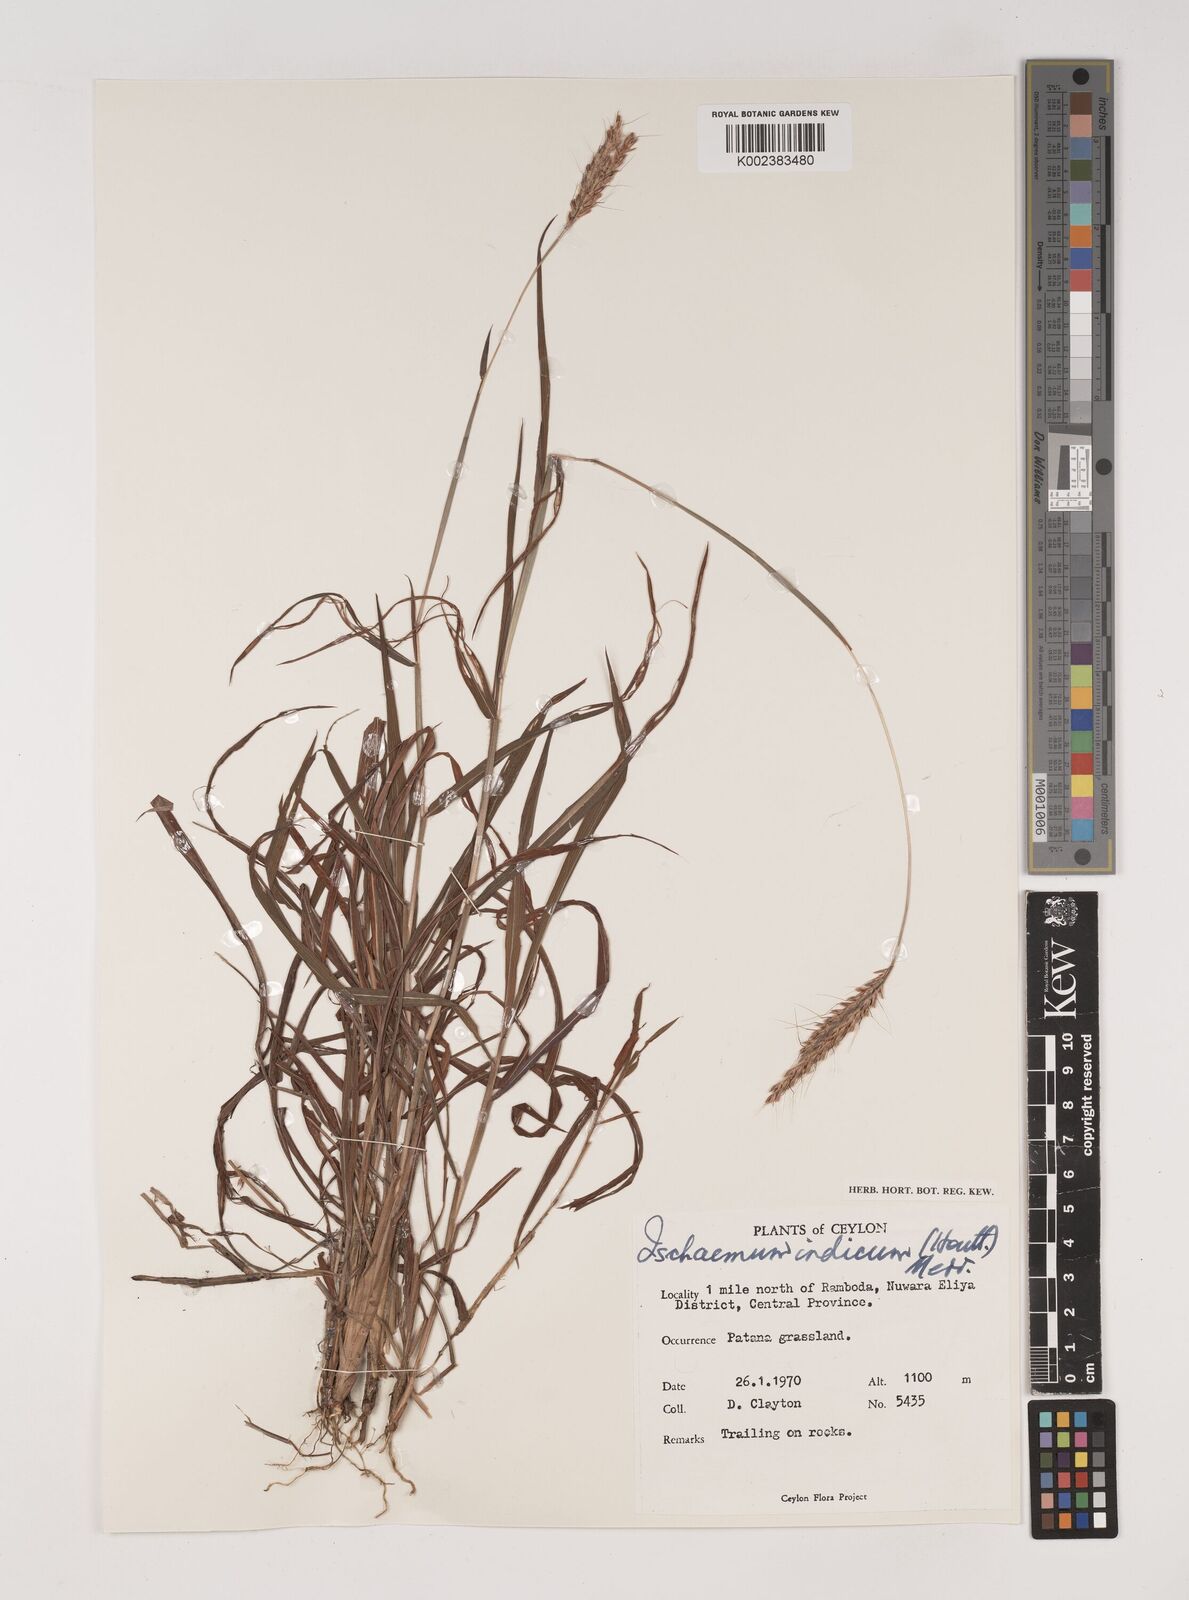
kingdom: Plantae
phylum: Tracheophyta
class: Liliopsida
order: Poales
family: Poaceae
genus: Polytrias
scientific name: Polytrias indica
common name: Indian murainagrass
